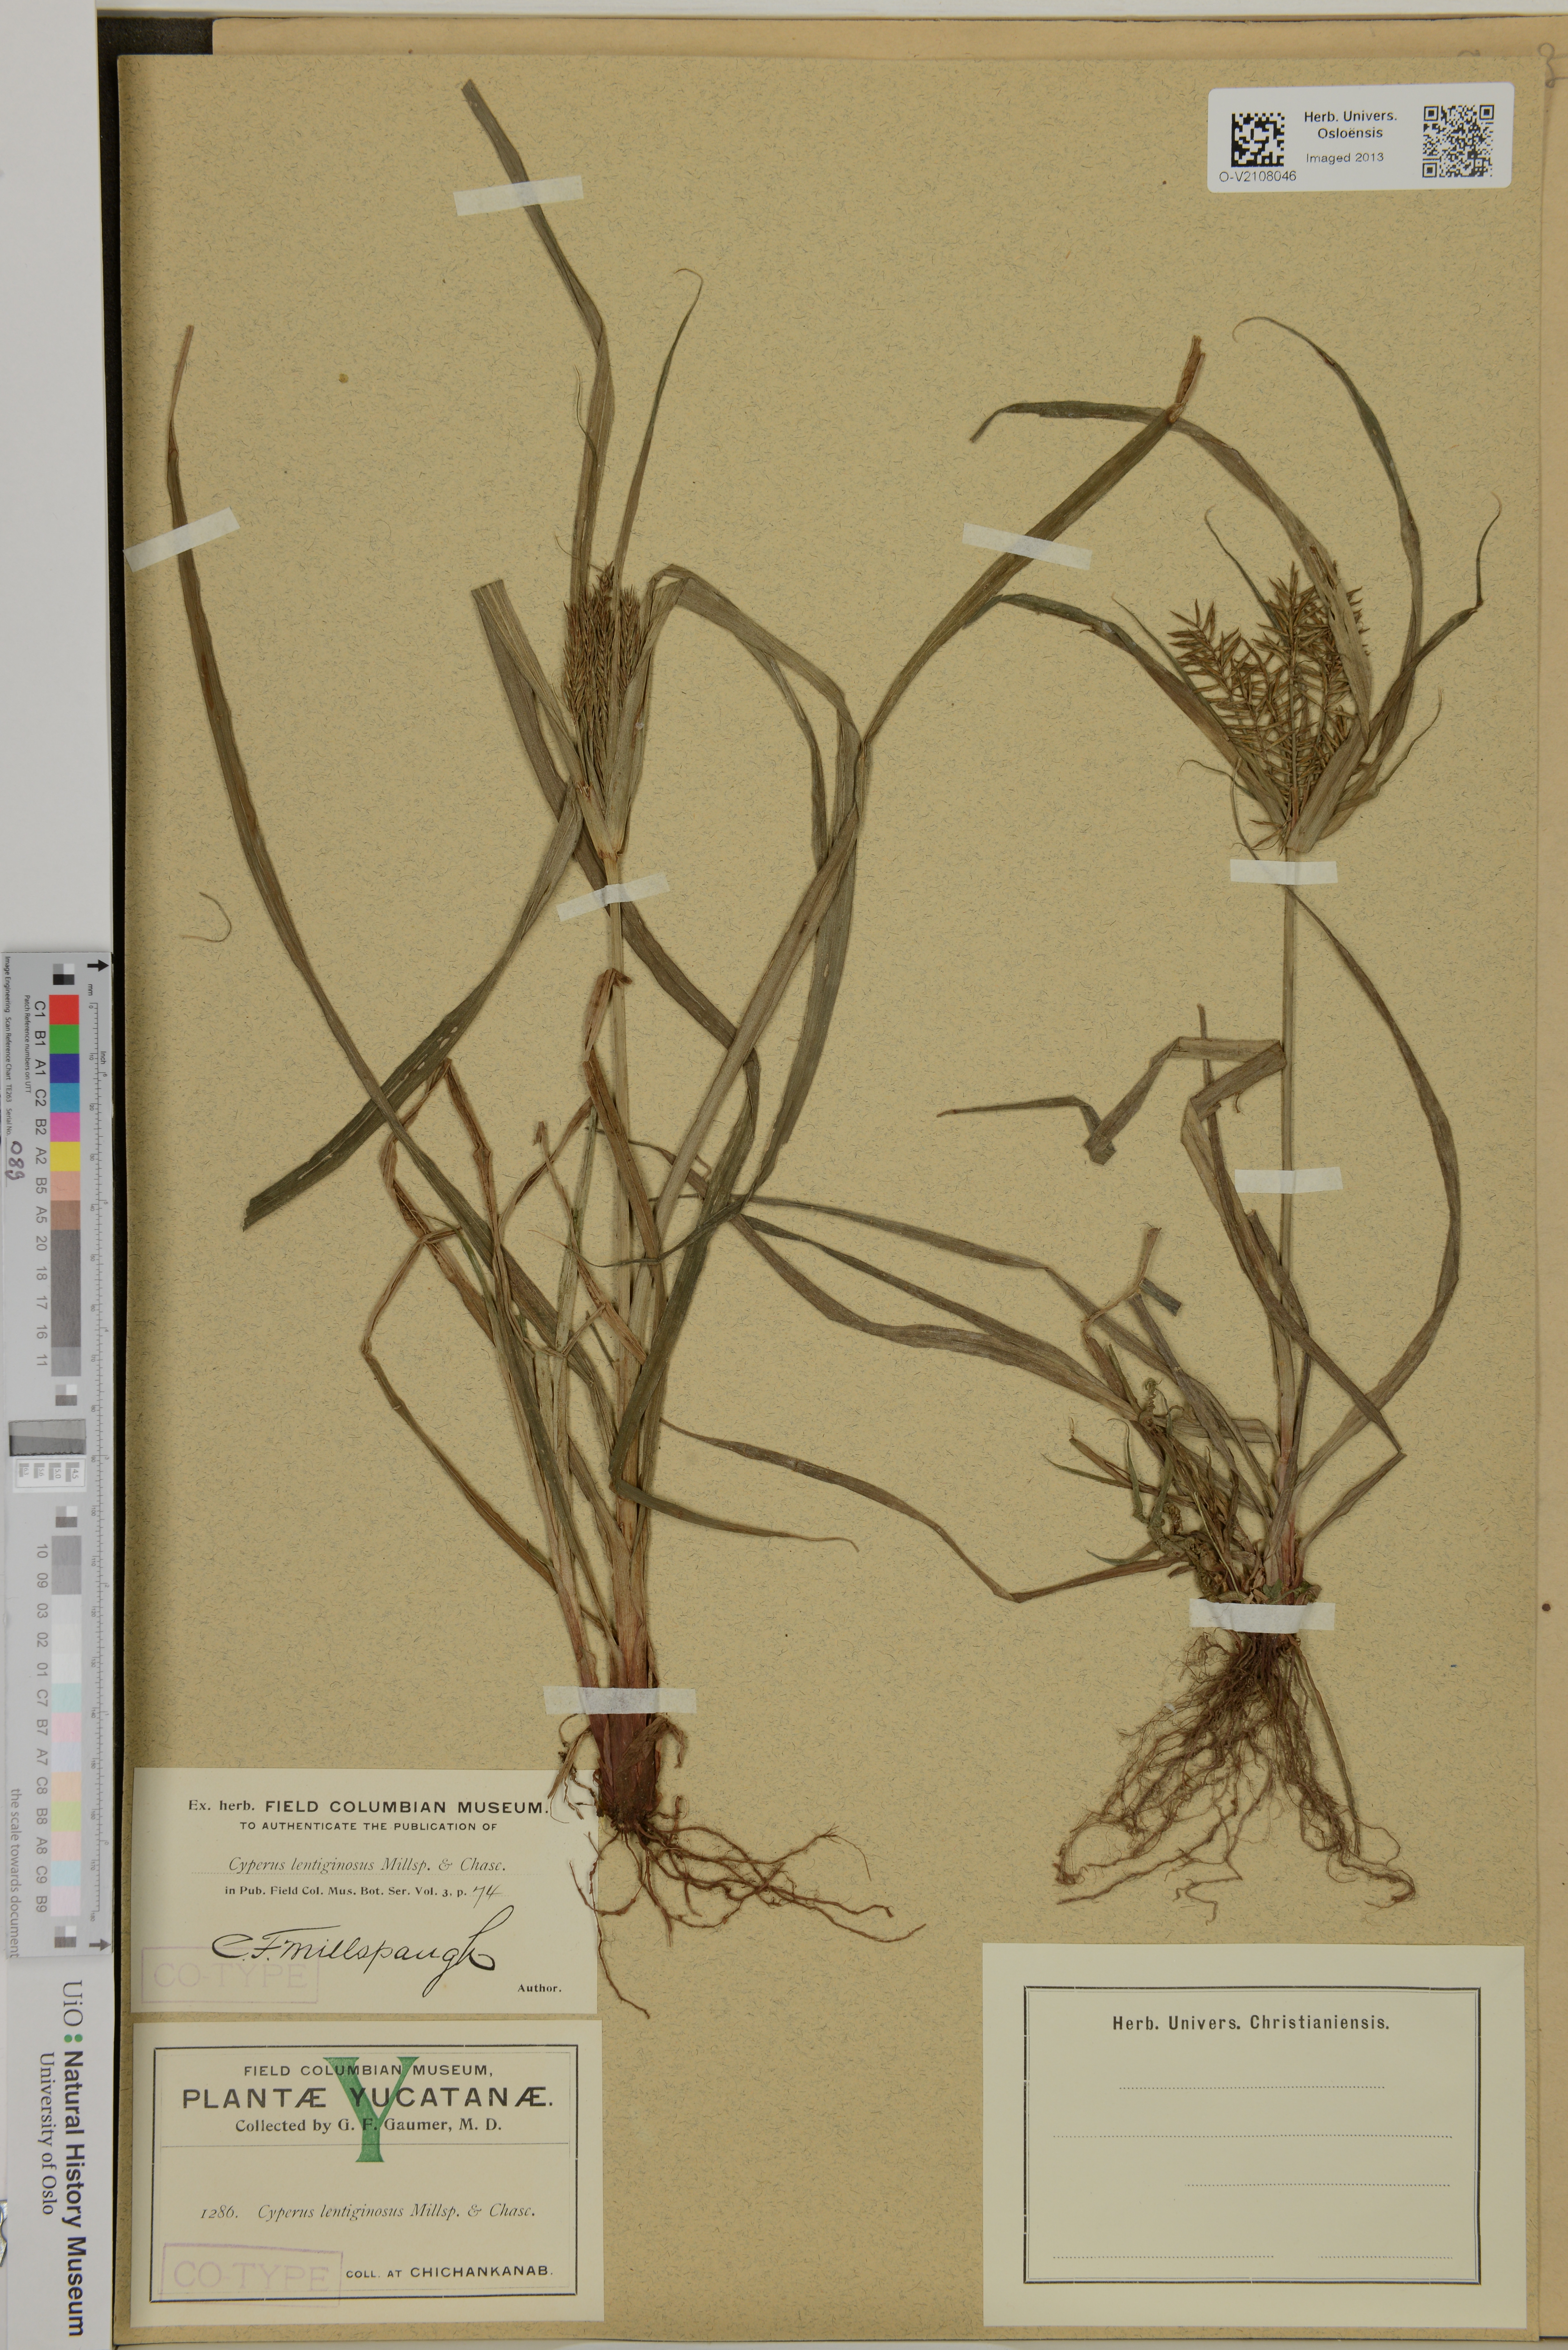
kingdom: Plantae
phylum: Tracheophyta
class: Liliopsida
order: Poales
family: Cyperaceae
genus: Cyperus
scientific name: Cyperus lentiginosus
